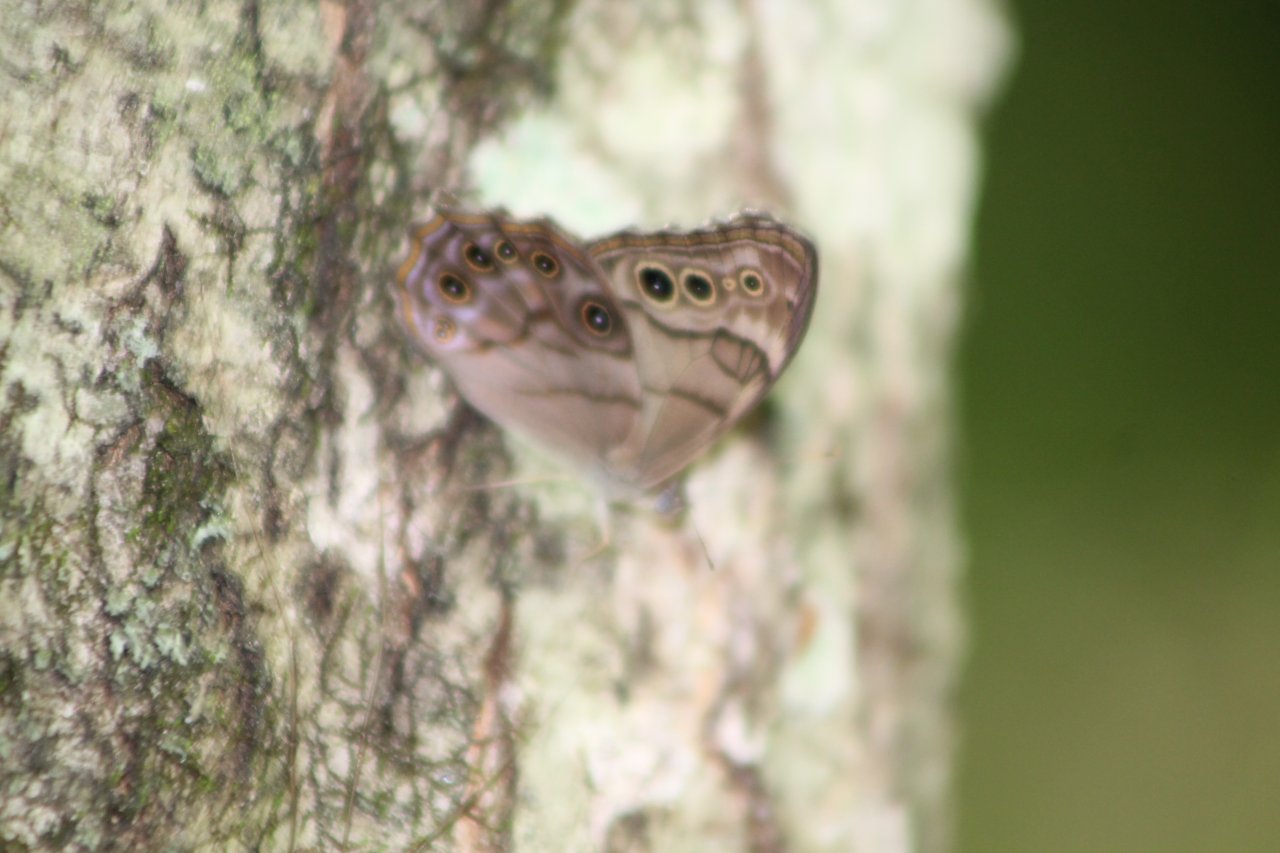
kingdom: Animalia
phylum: Arthropoda
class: Insecta
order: Lepidoptera
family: Nymphalidae
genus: Lethe
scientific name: Lethe anthedon
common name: Northern Pearly-Eye
